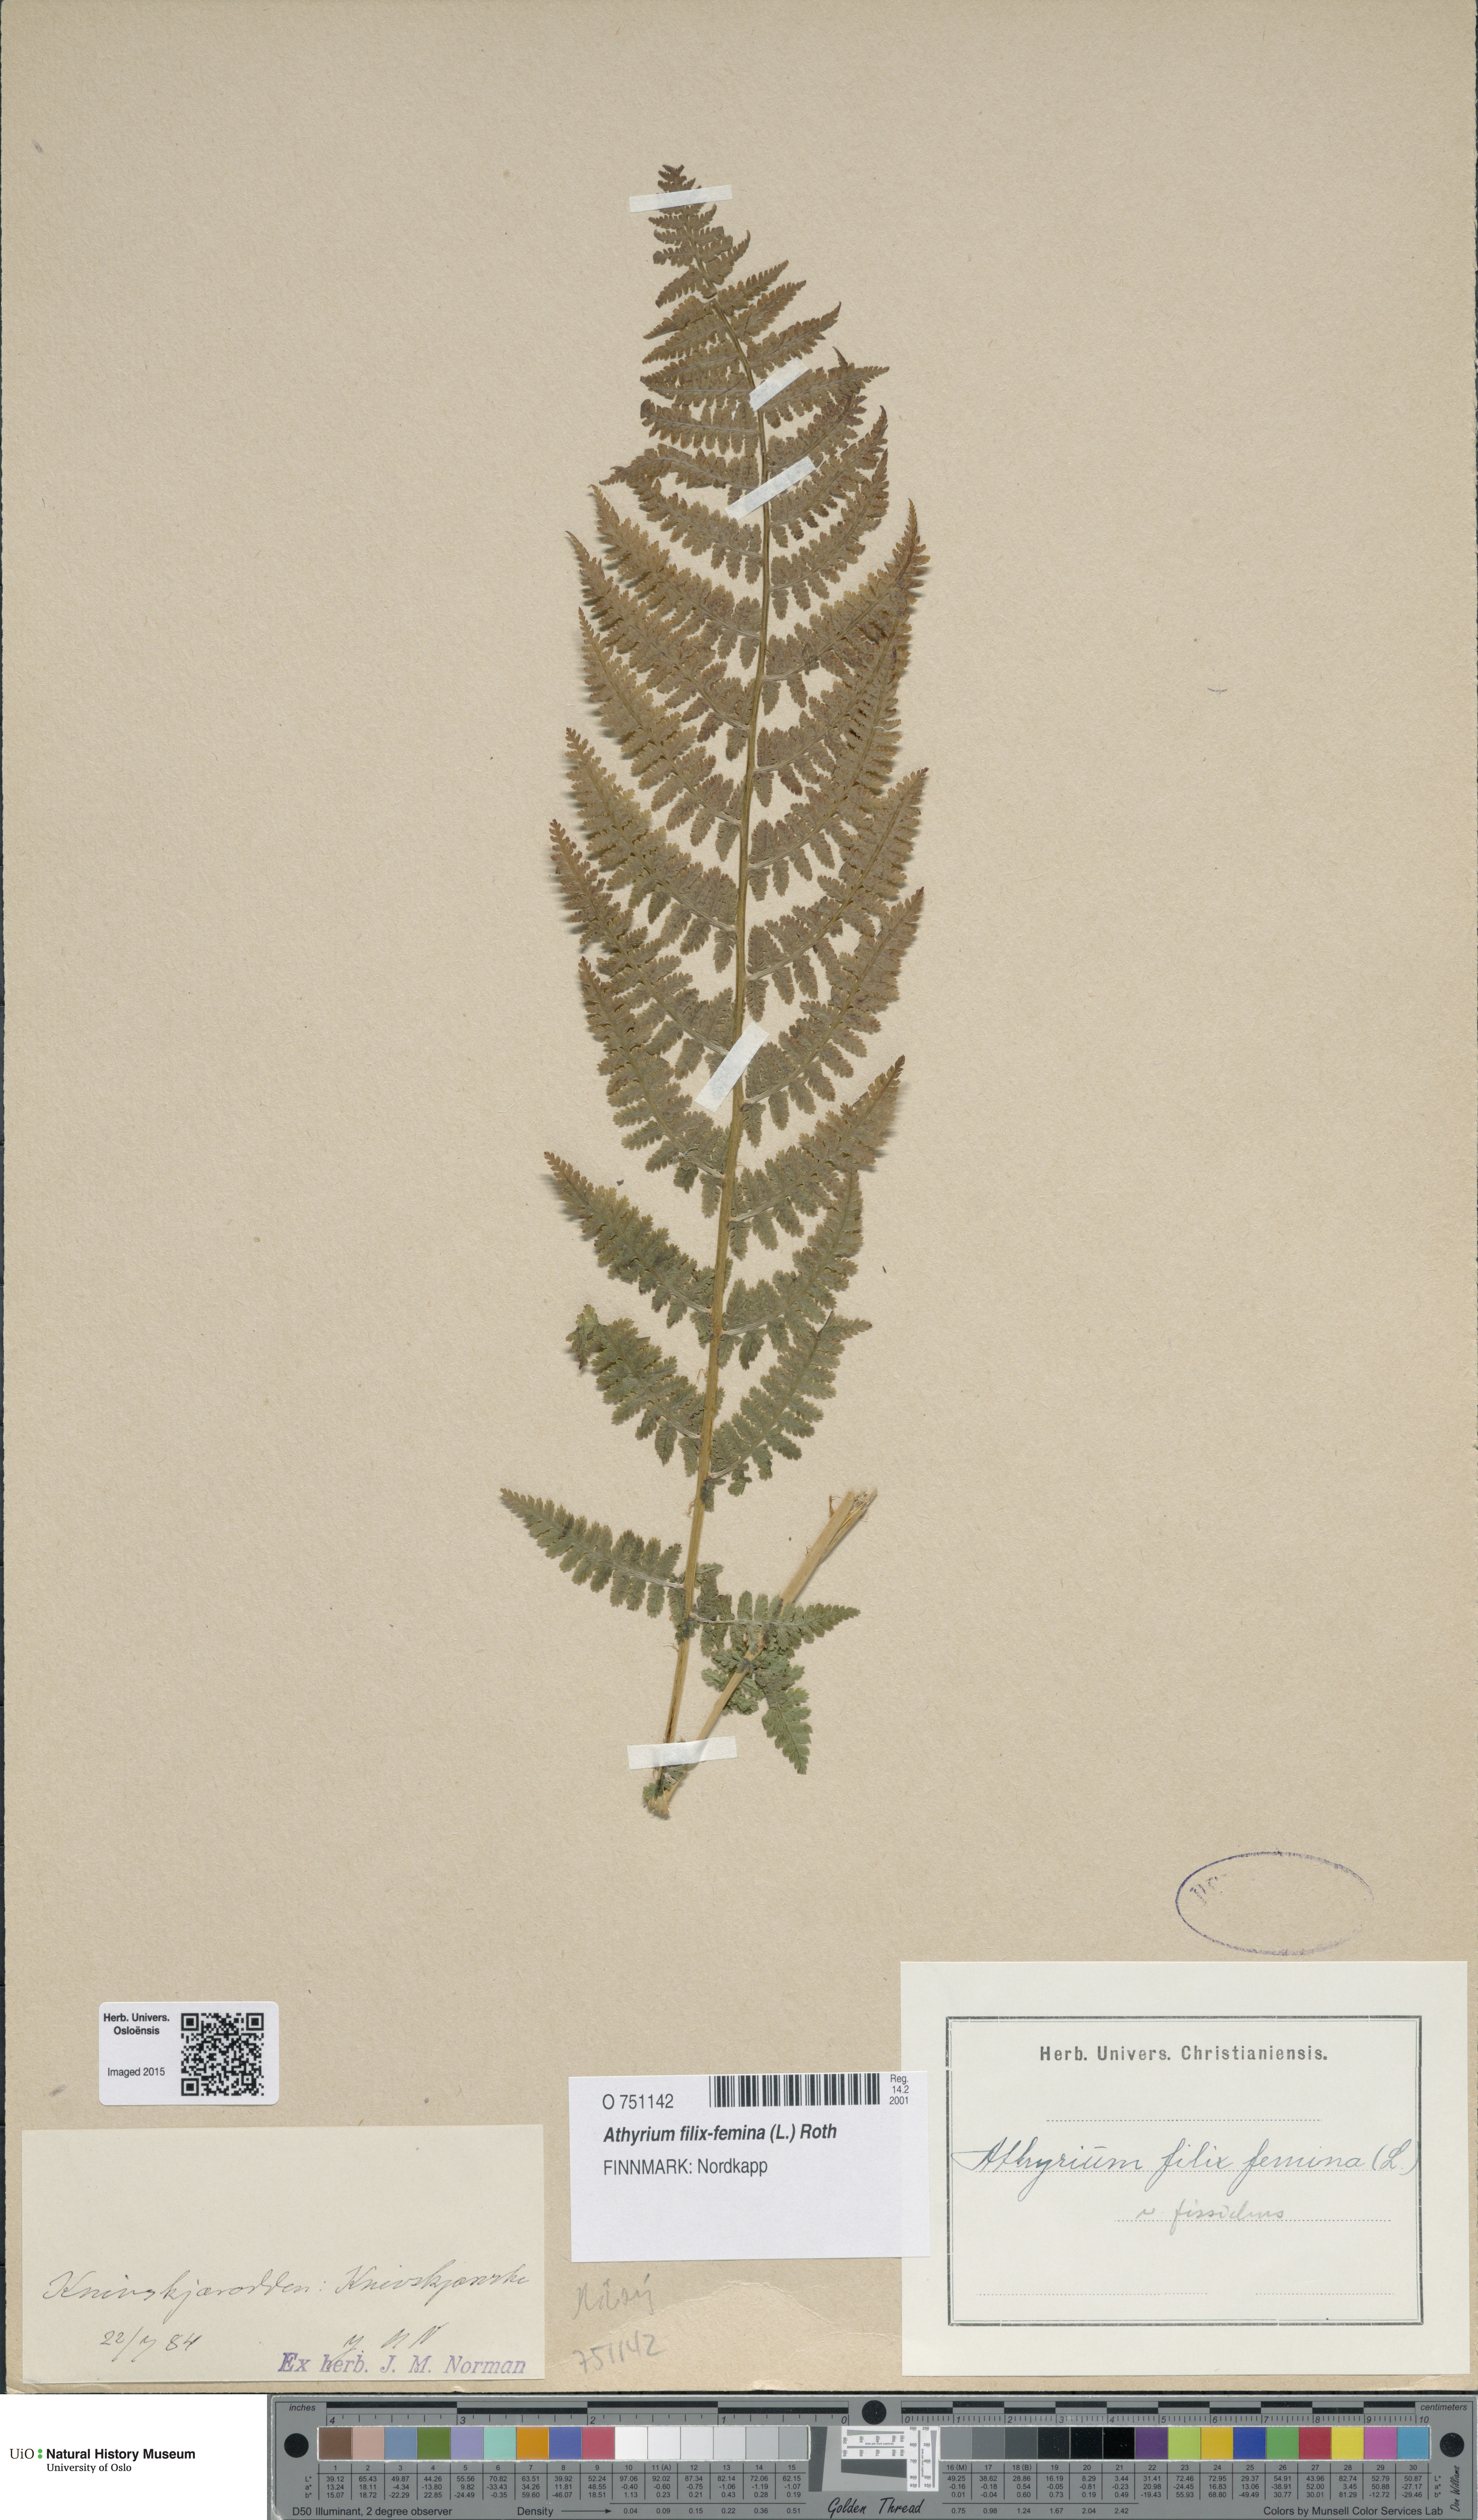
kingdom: Plantae
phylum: Tracheophyta
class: Polypodiopsida
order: Polypodiales
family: Athyriaceae
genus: Athyrium
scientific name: Athyrium filix-femina
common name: Lady fern
